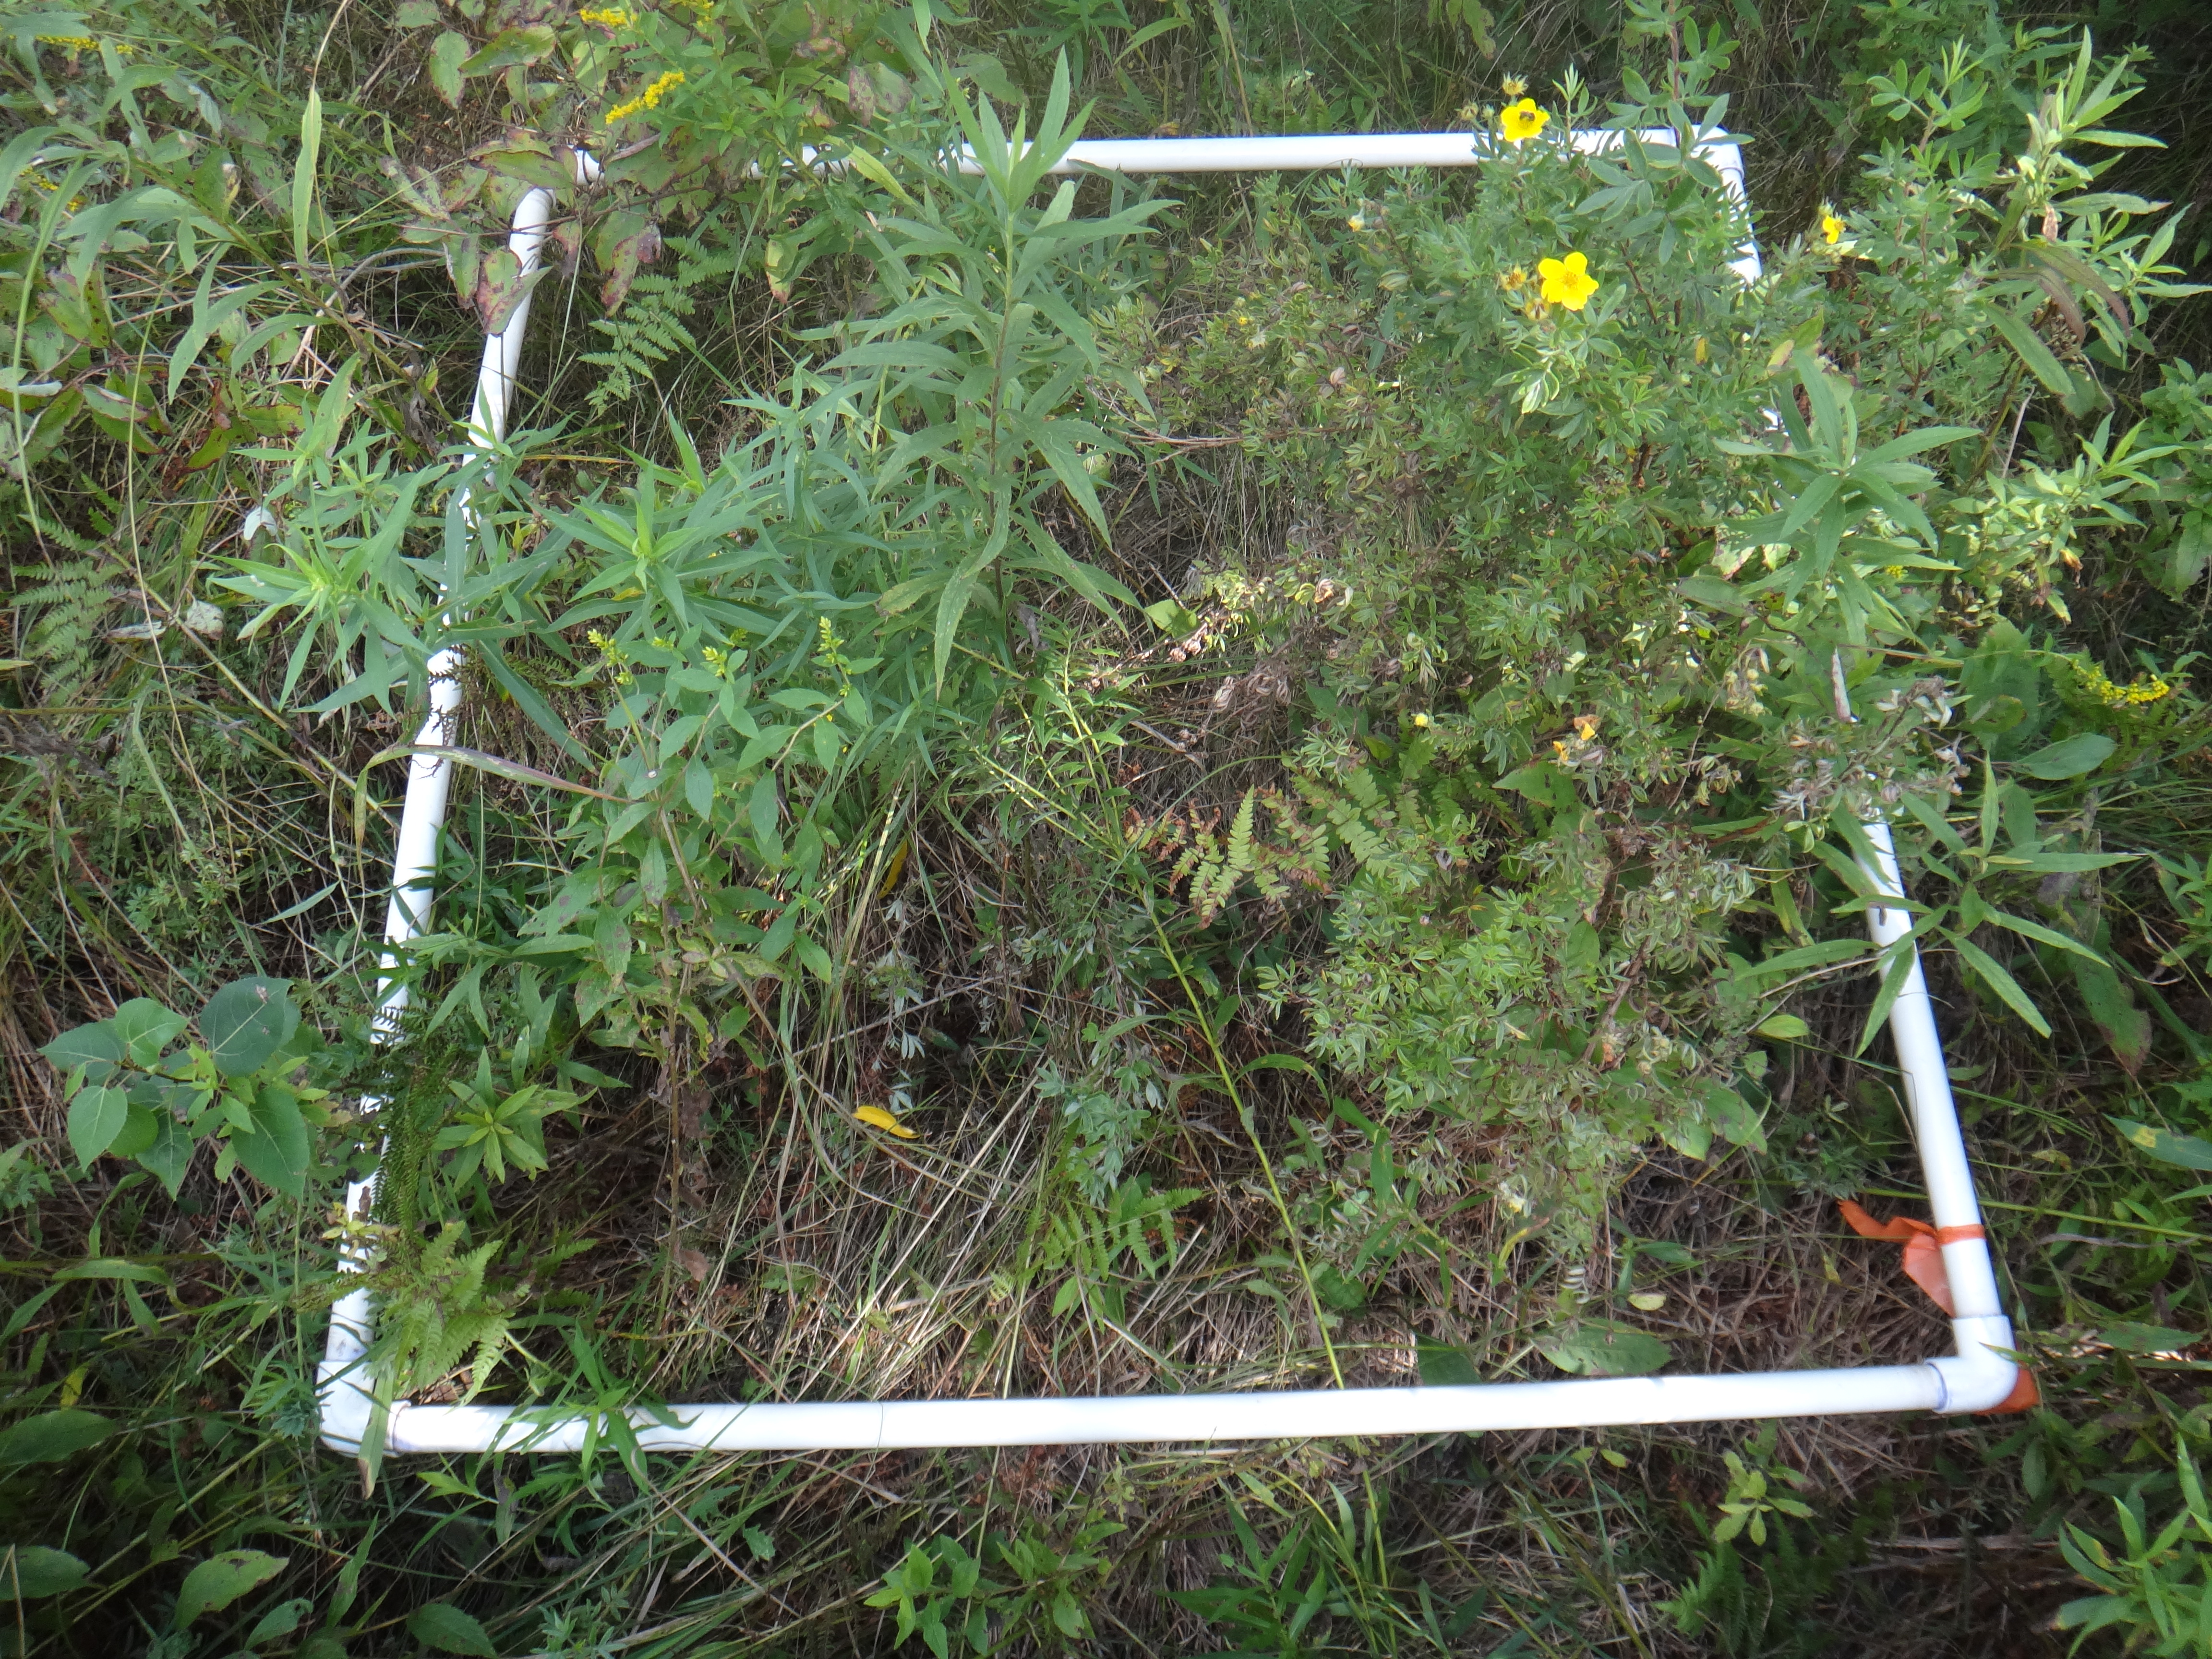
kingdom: Plantae
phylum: Tracheophyta
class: Magnoliopsida
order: Asterales
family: Asteraceae
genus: Solidago
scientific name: Solidago rugosa
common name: Rough-stemmed goldenrod
